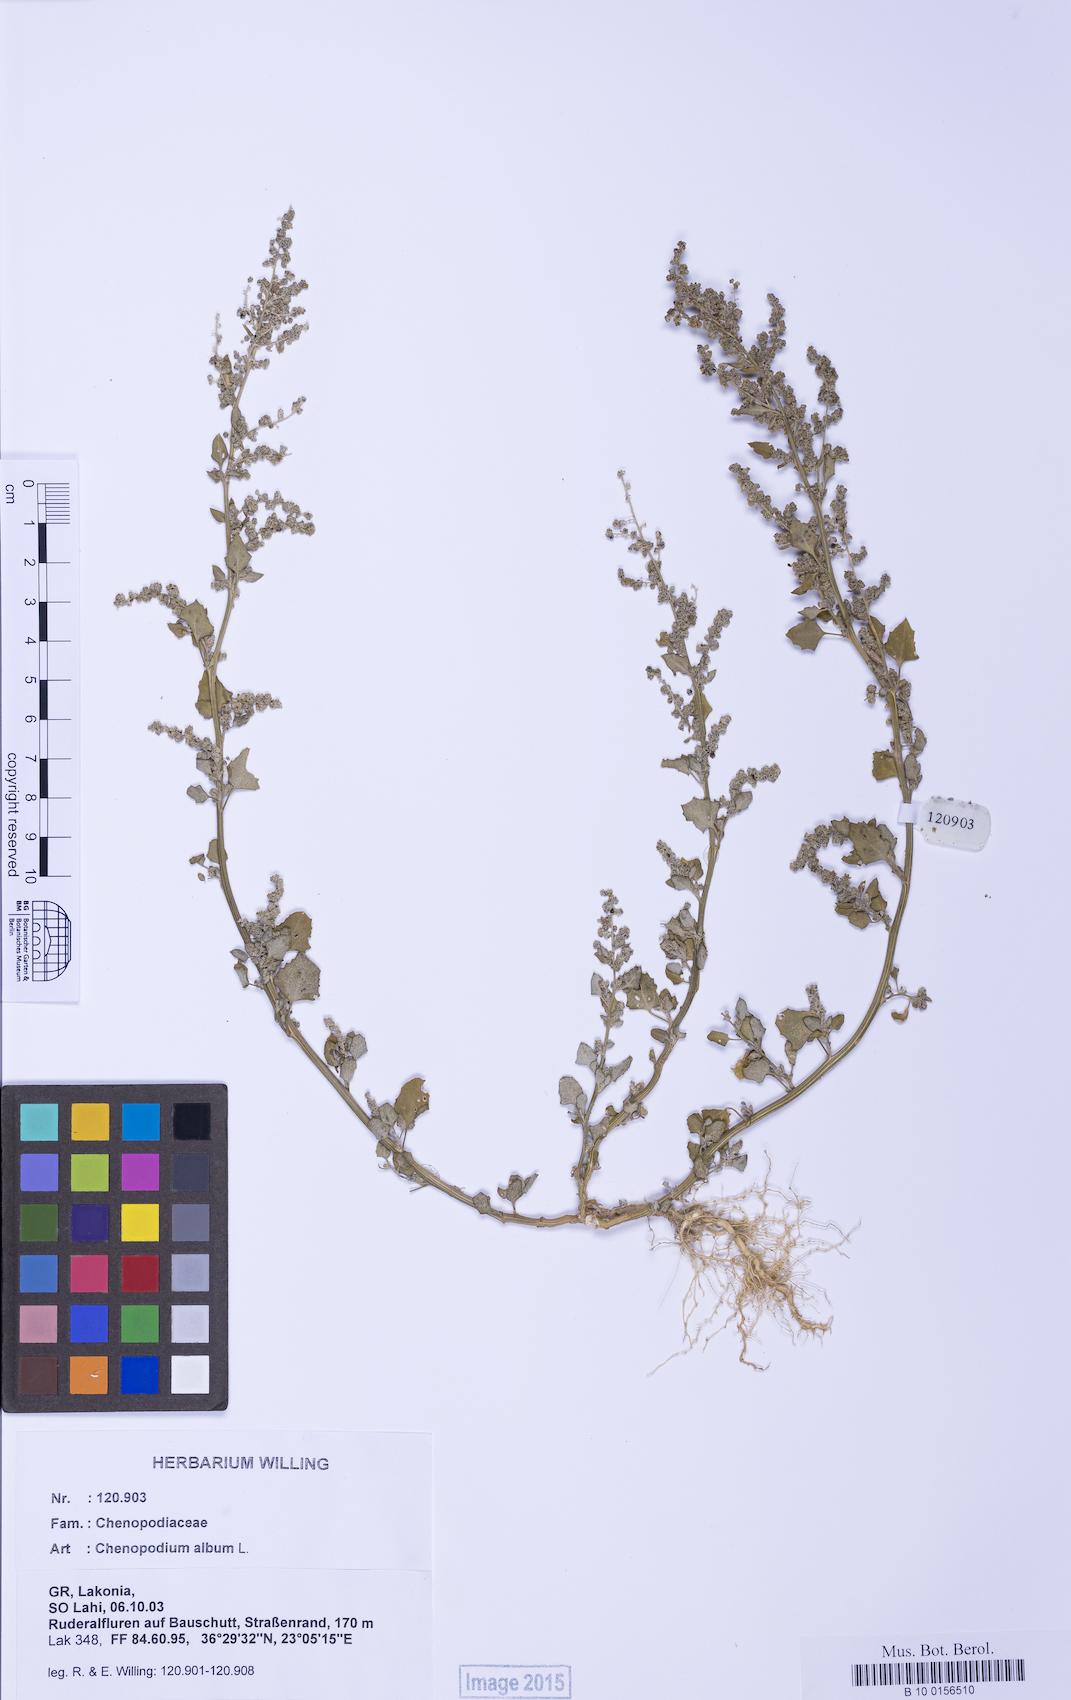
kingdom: Plantae
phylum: Tracheophyta
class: Magnoliopsida
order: Caryophyllales
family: Amaranthaceae
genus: Chenopodium
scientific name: Chenopodium album
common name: Fat-hen
